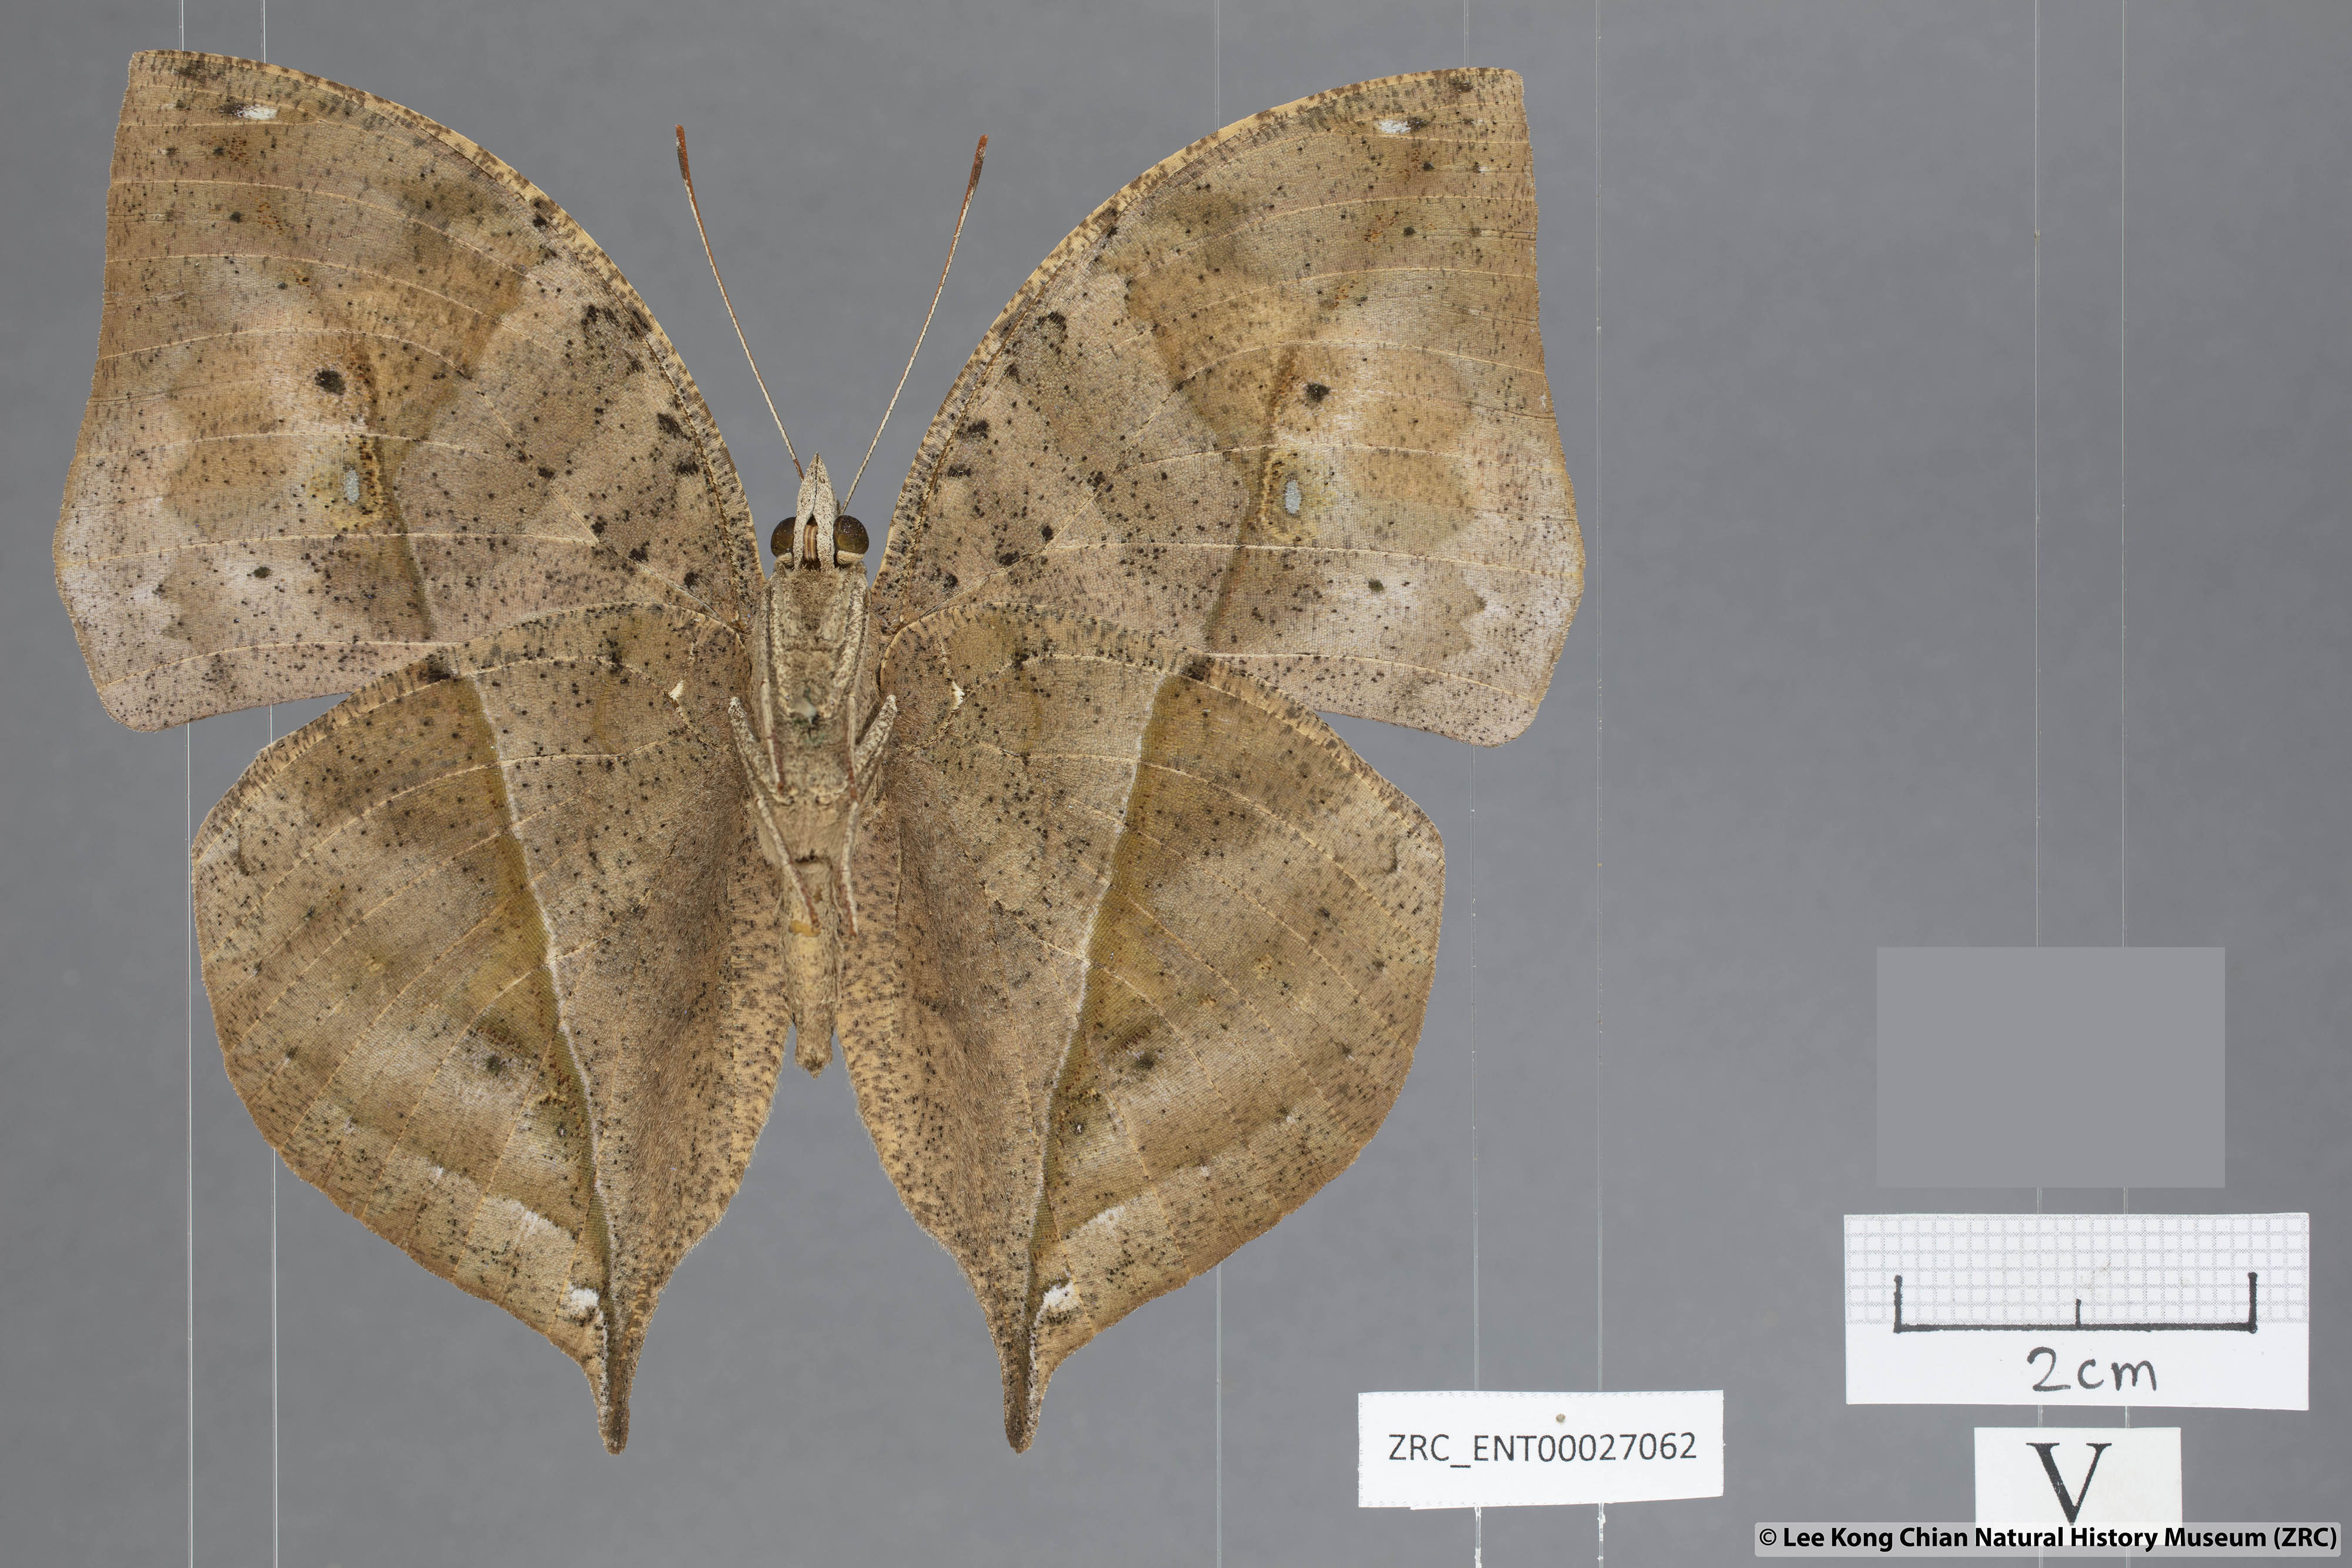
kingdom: Animalia
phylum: Arthropoda
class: Insecta
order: Lepidoptera
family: Nymphalidae
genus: Kallima
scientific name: Kallima paralekta
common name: Indian leafwing
